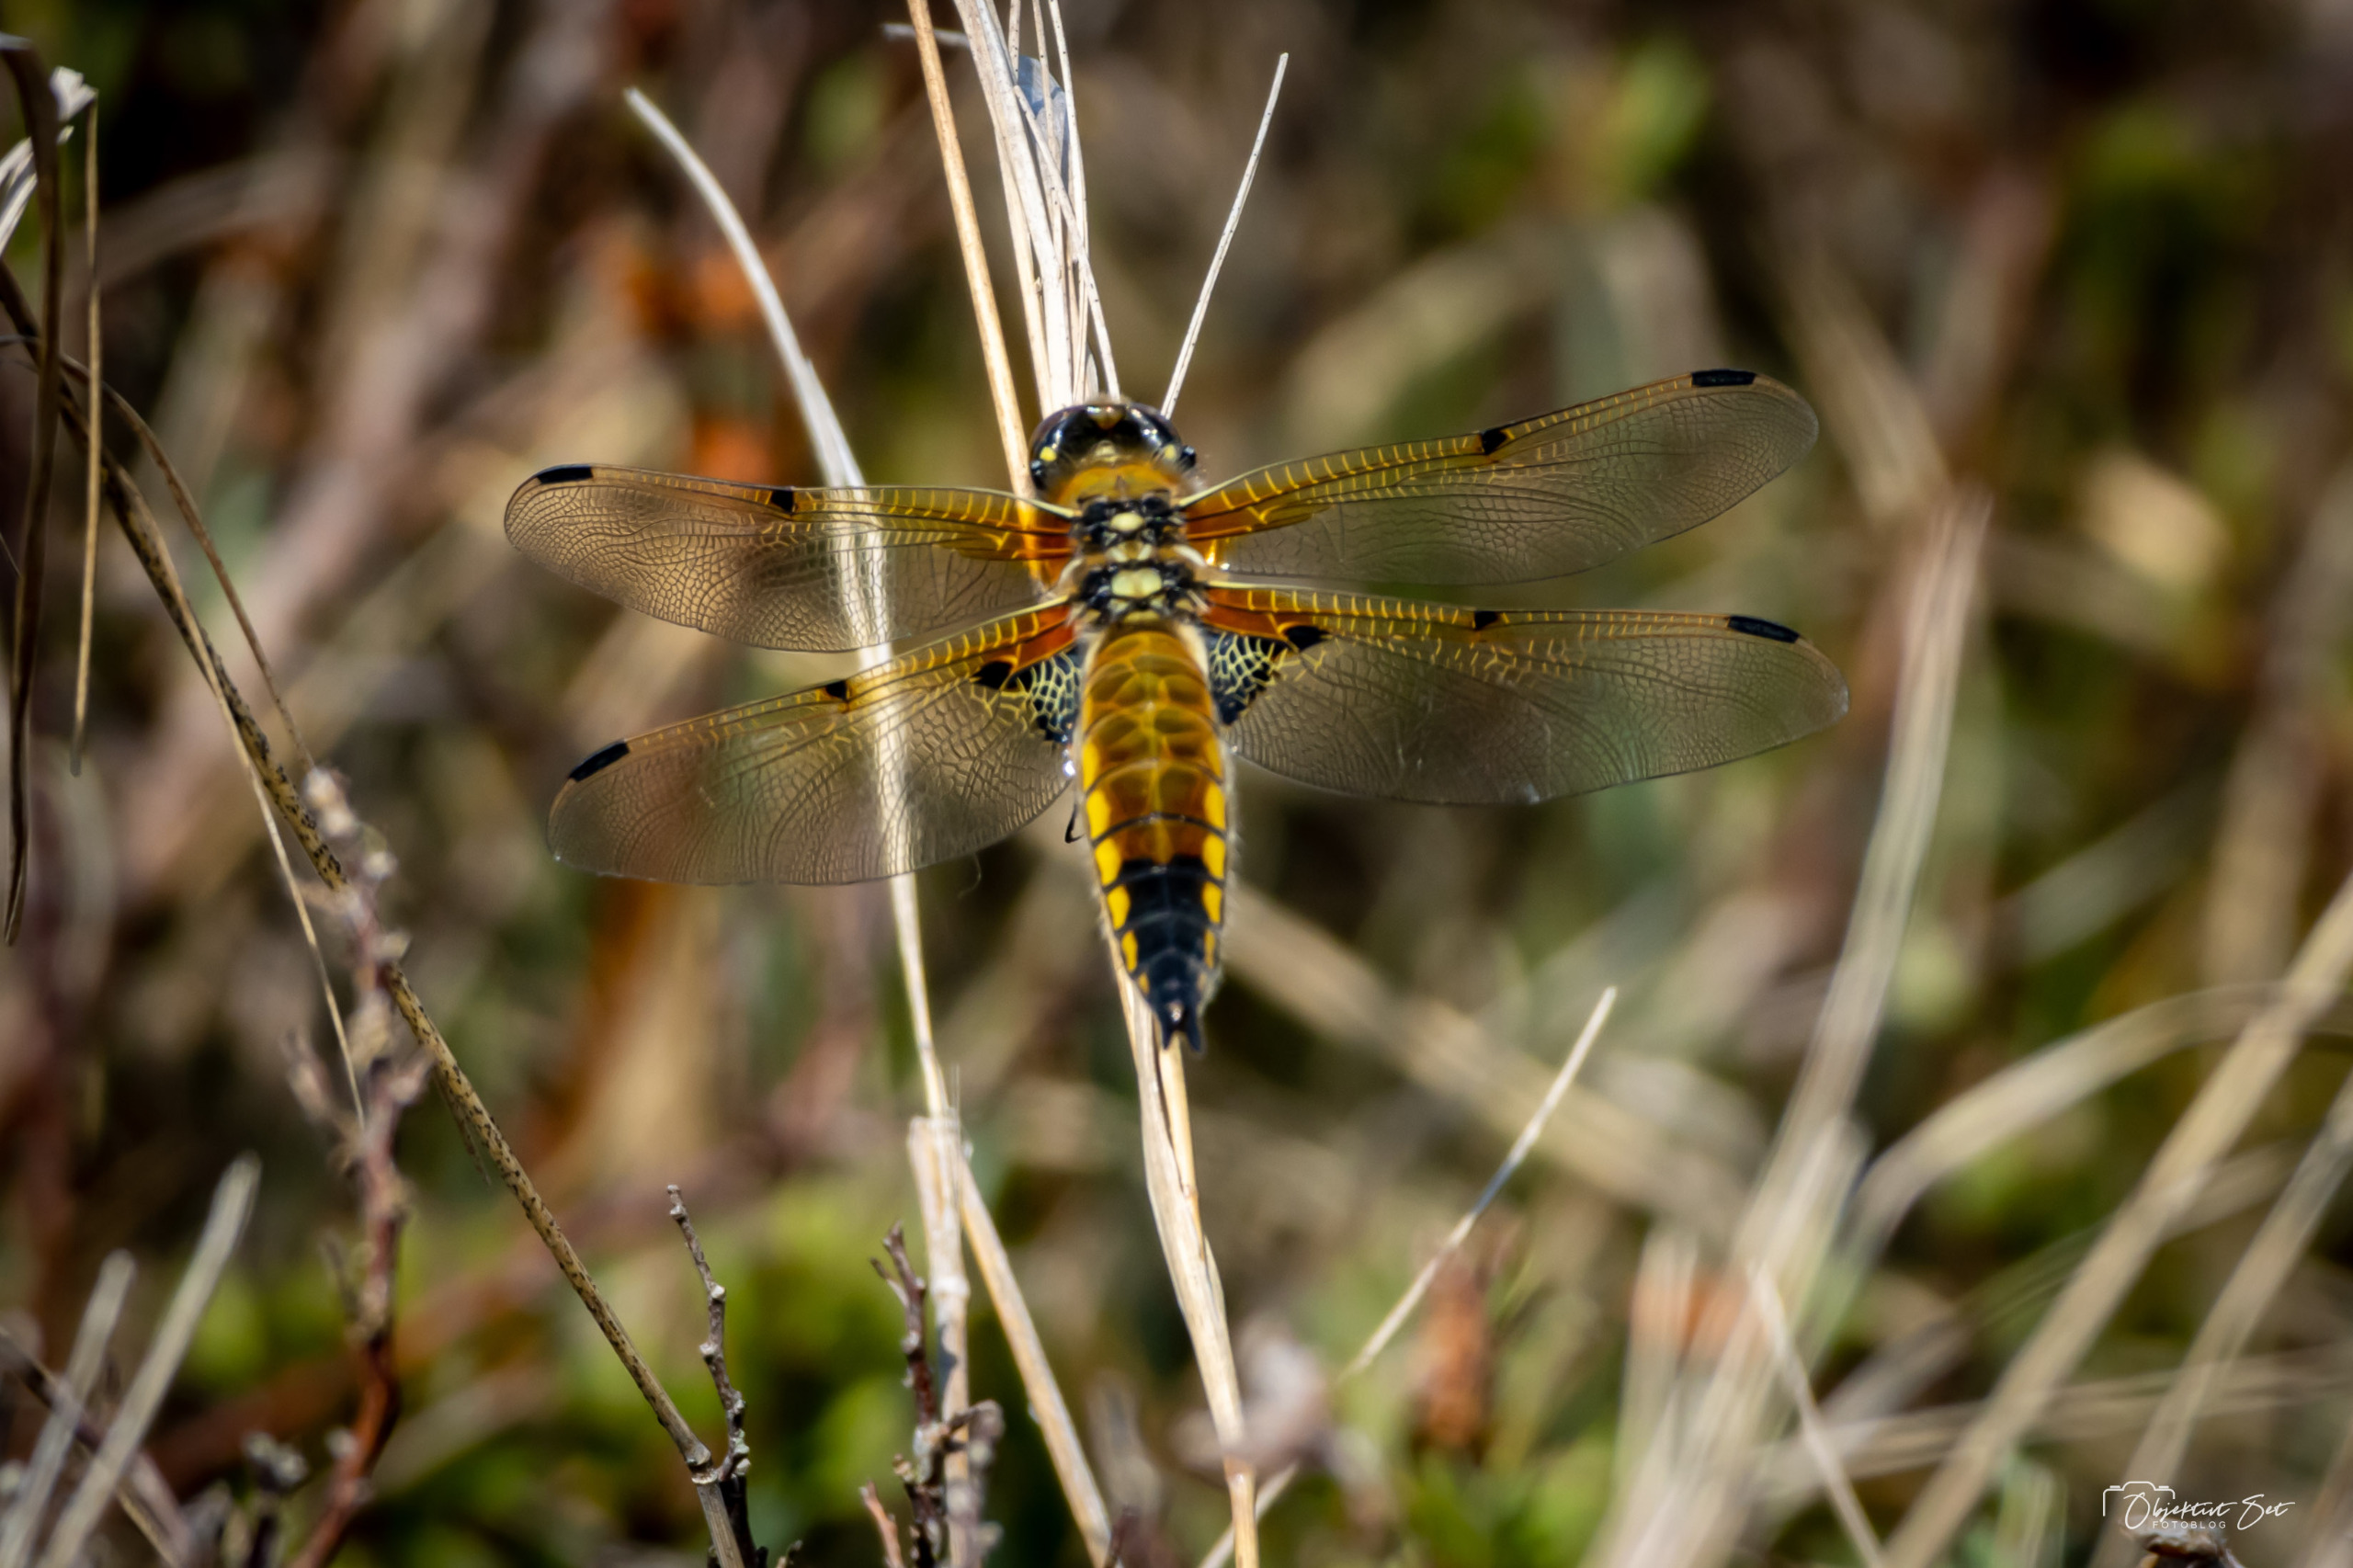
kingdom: Animalia
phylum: Arthropoda
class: Insecta
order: Odonata
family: Libellulidae
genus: Libellula
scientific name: Libellula quadrimaculata
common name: Fireplettet libel
